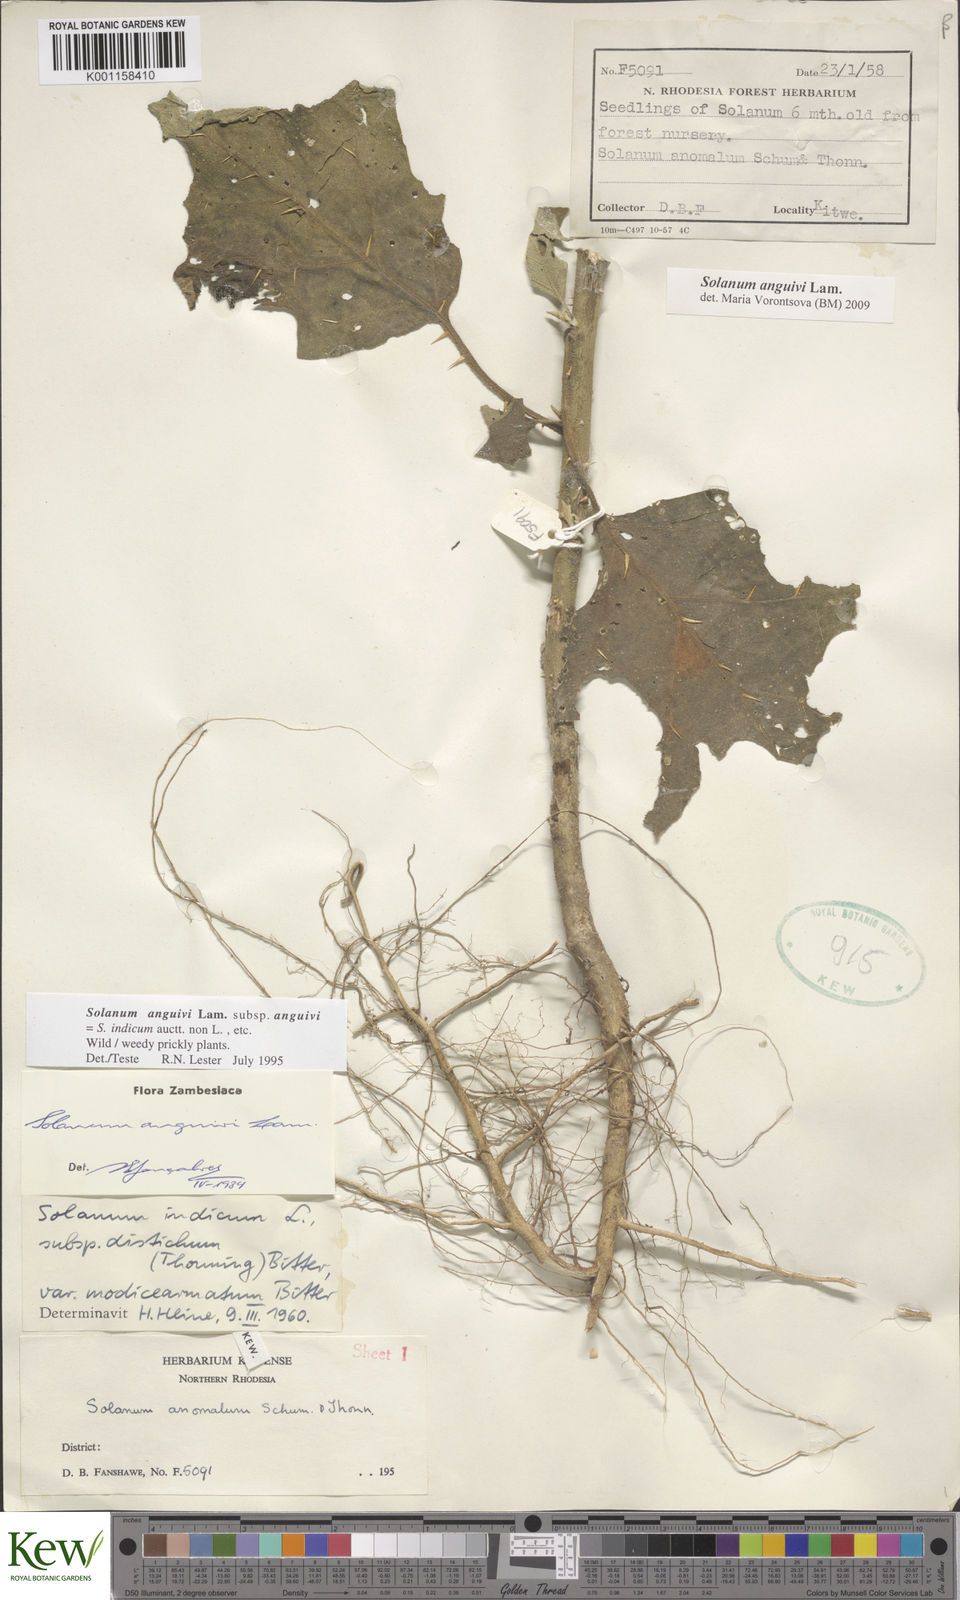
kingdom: Plantae
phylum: Tracheophyta
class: Magnoliopsida
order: Solanales
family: Solanaceae
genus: Solanum
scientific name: Solanum anguivi
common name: Forest bitterberry
